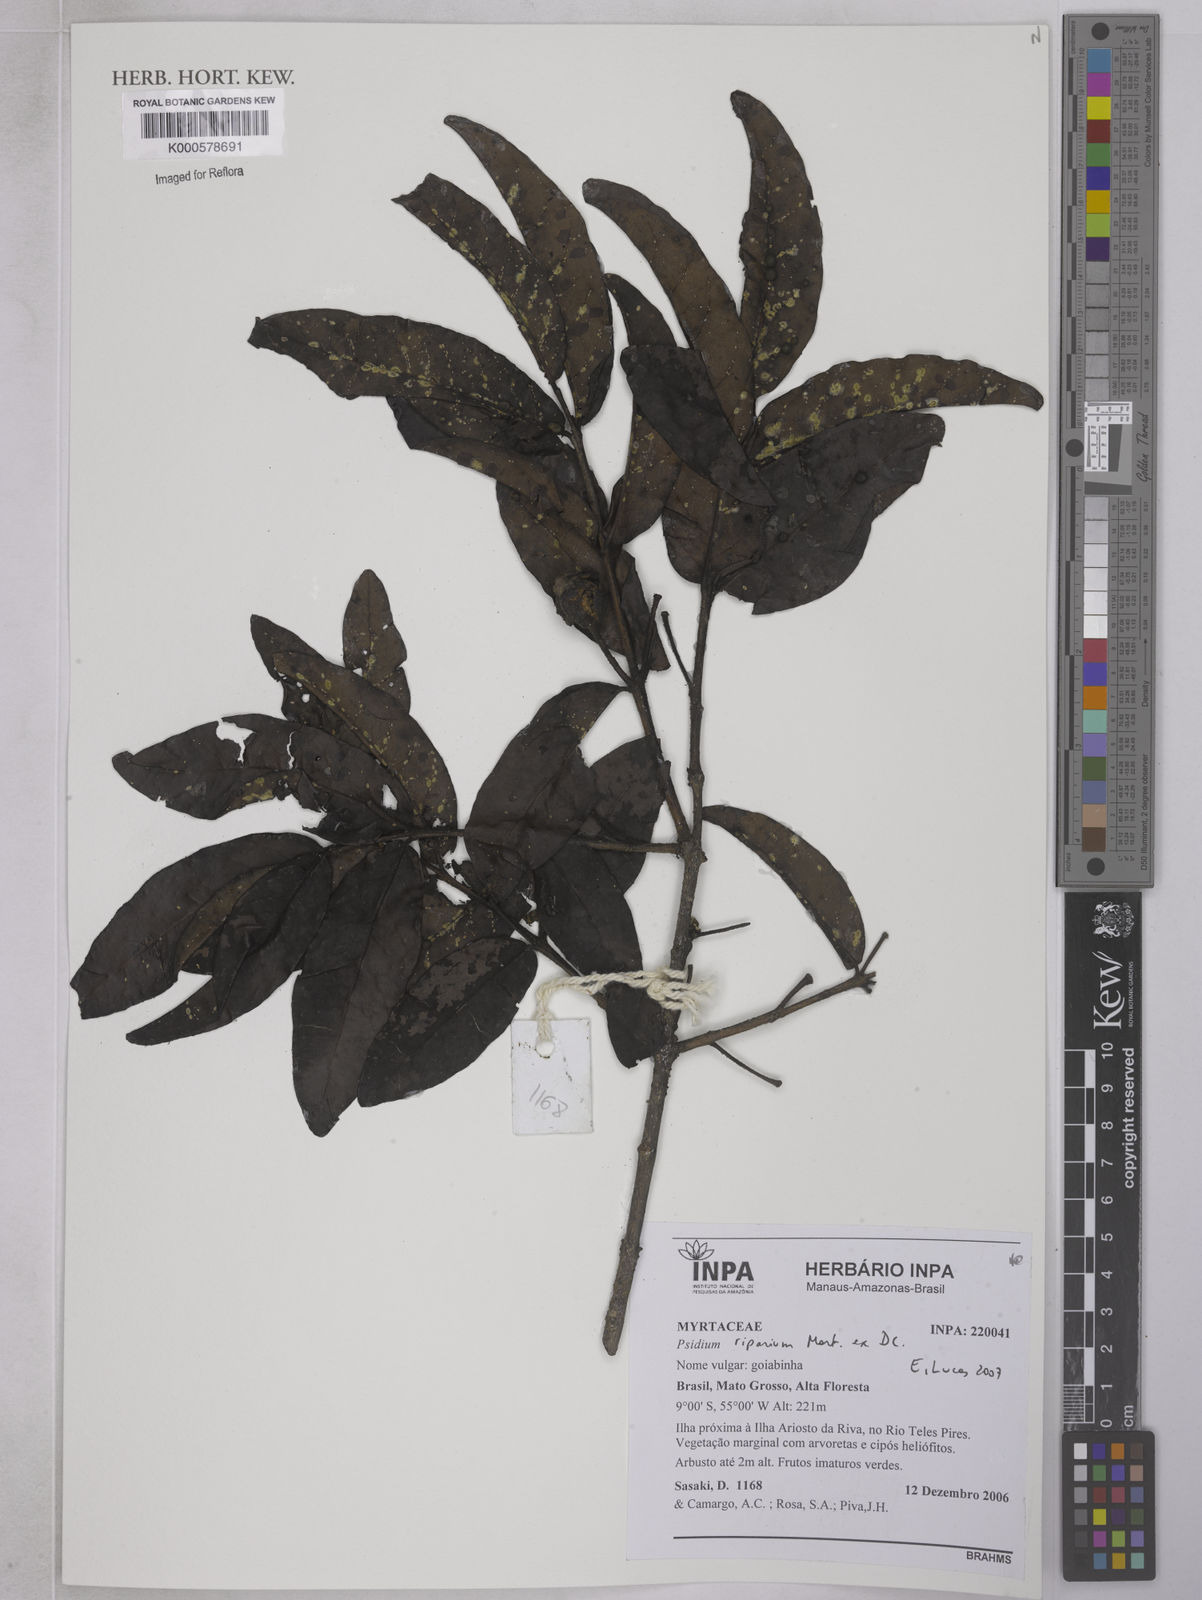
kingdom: Plantae
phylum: Tracheophyta
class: Magnoliopsida
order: Myrtales
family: Myrtaceae
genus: Psidium
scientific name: Psidium riparium
